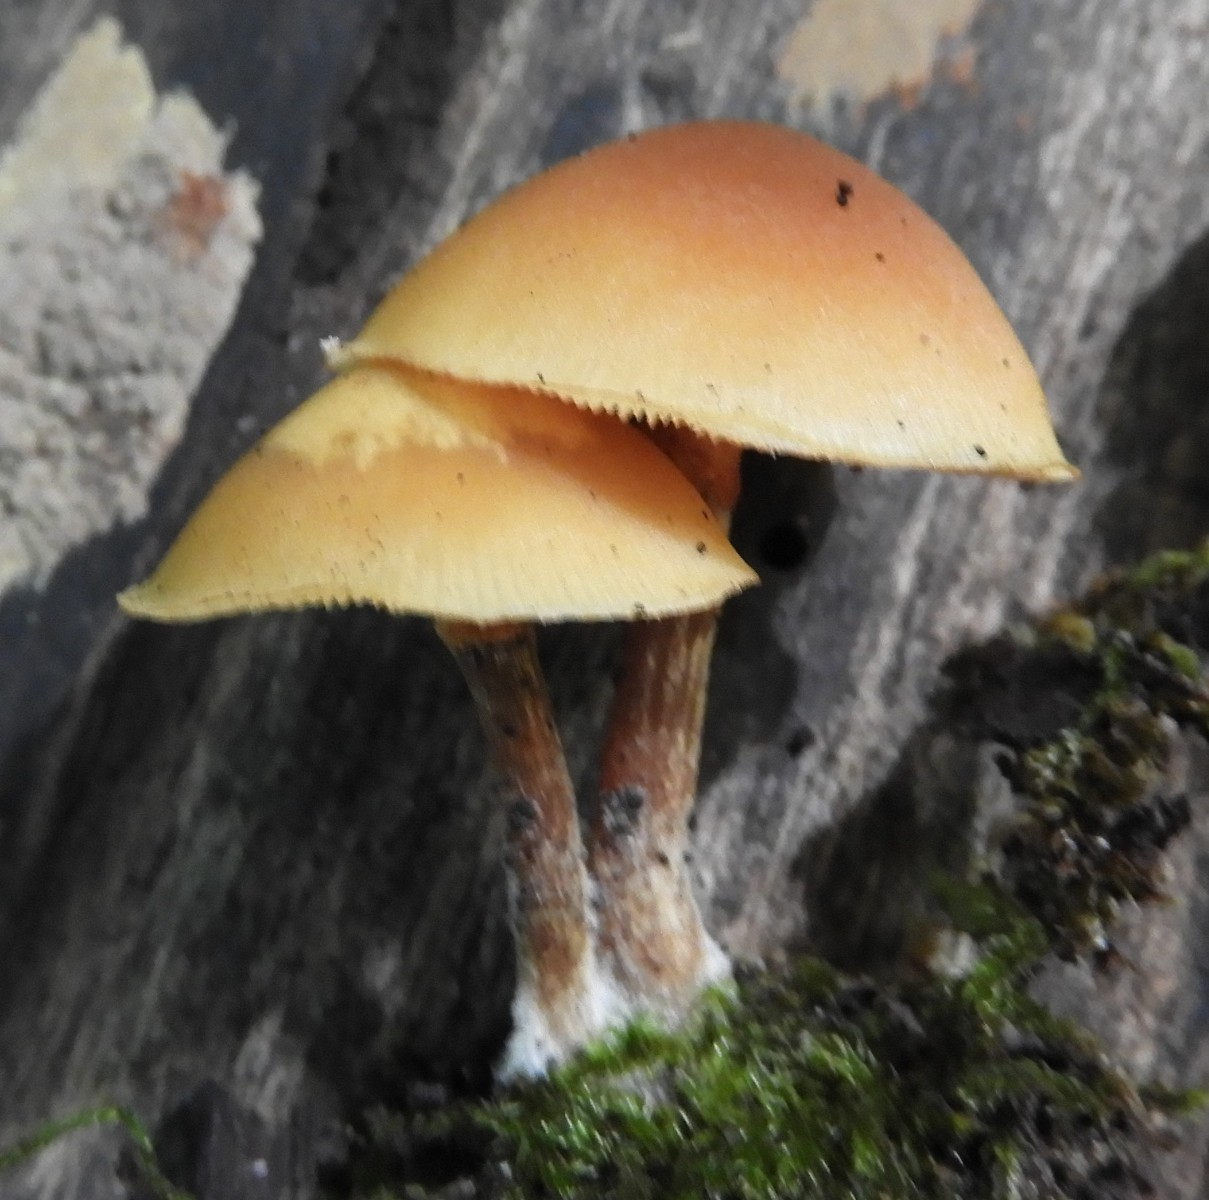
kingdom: Fungi
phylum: Basidiomycota
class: Agaricomycetes
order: Agaricales
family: Hymenogastraceae
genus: Galerina
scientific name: Galerina marginata
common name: randbæltet hjelmhat
